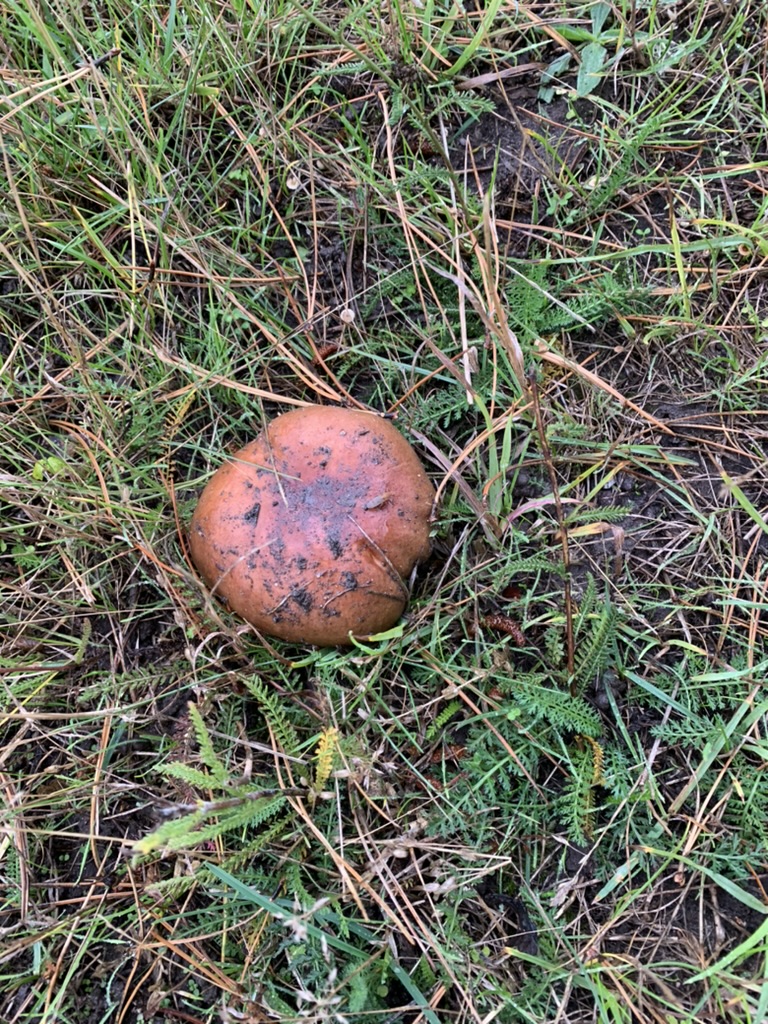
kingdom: Fungi
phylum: Basidiomycota
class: Agaricomycetes
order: Russulales
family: Russulaceae
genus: Russula
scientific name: Russula
